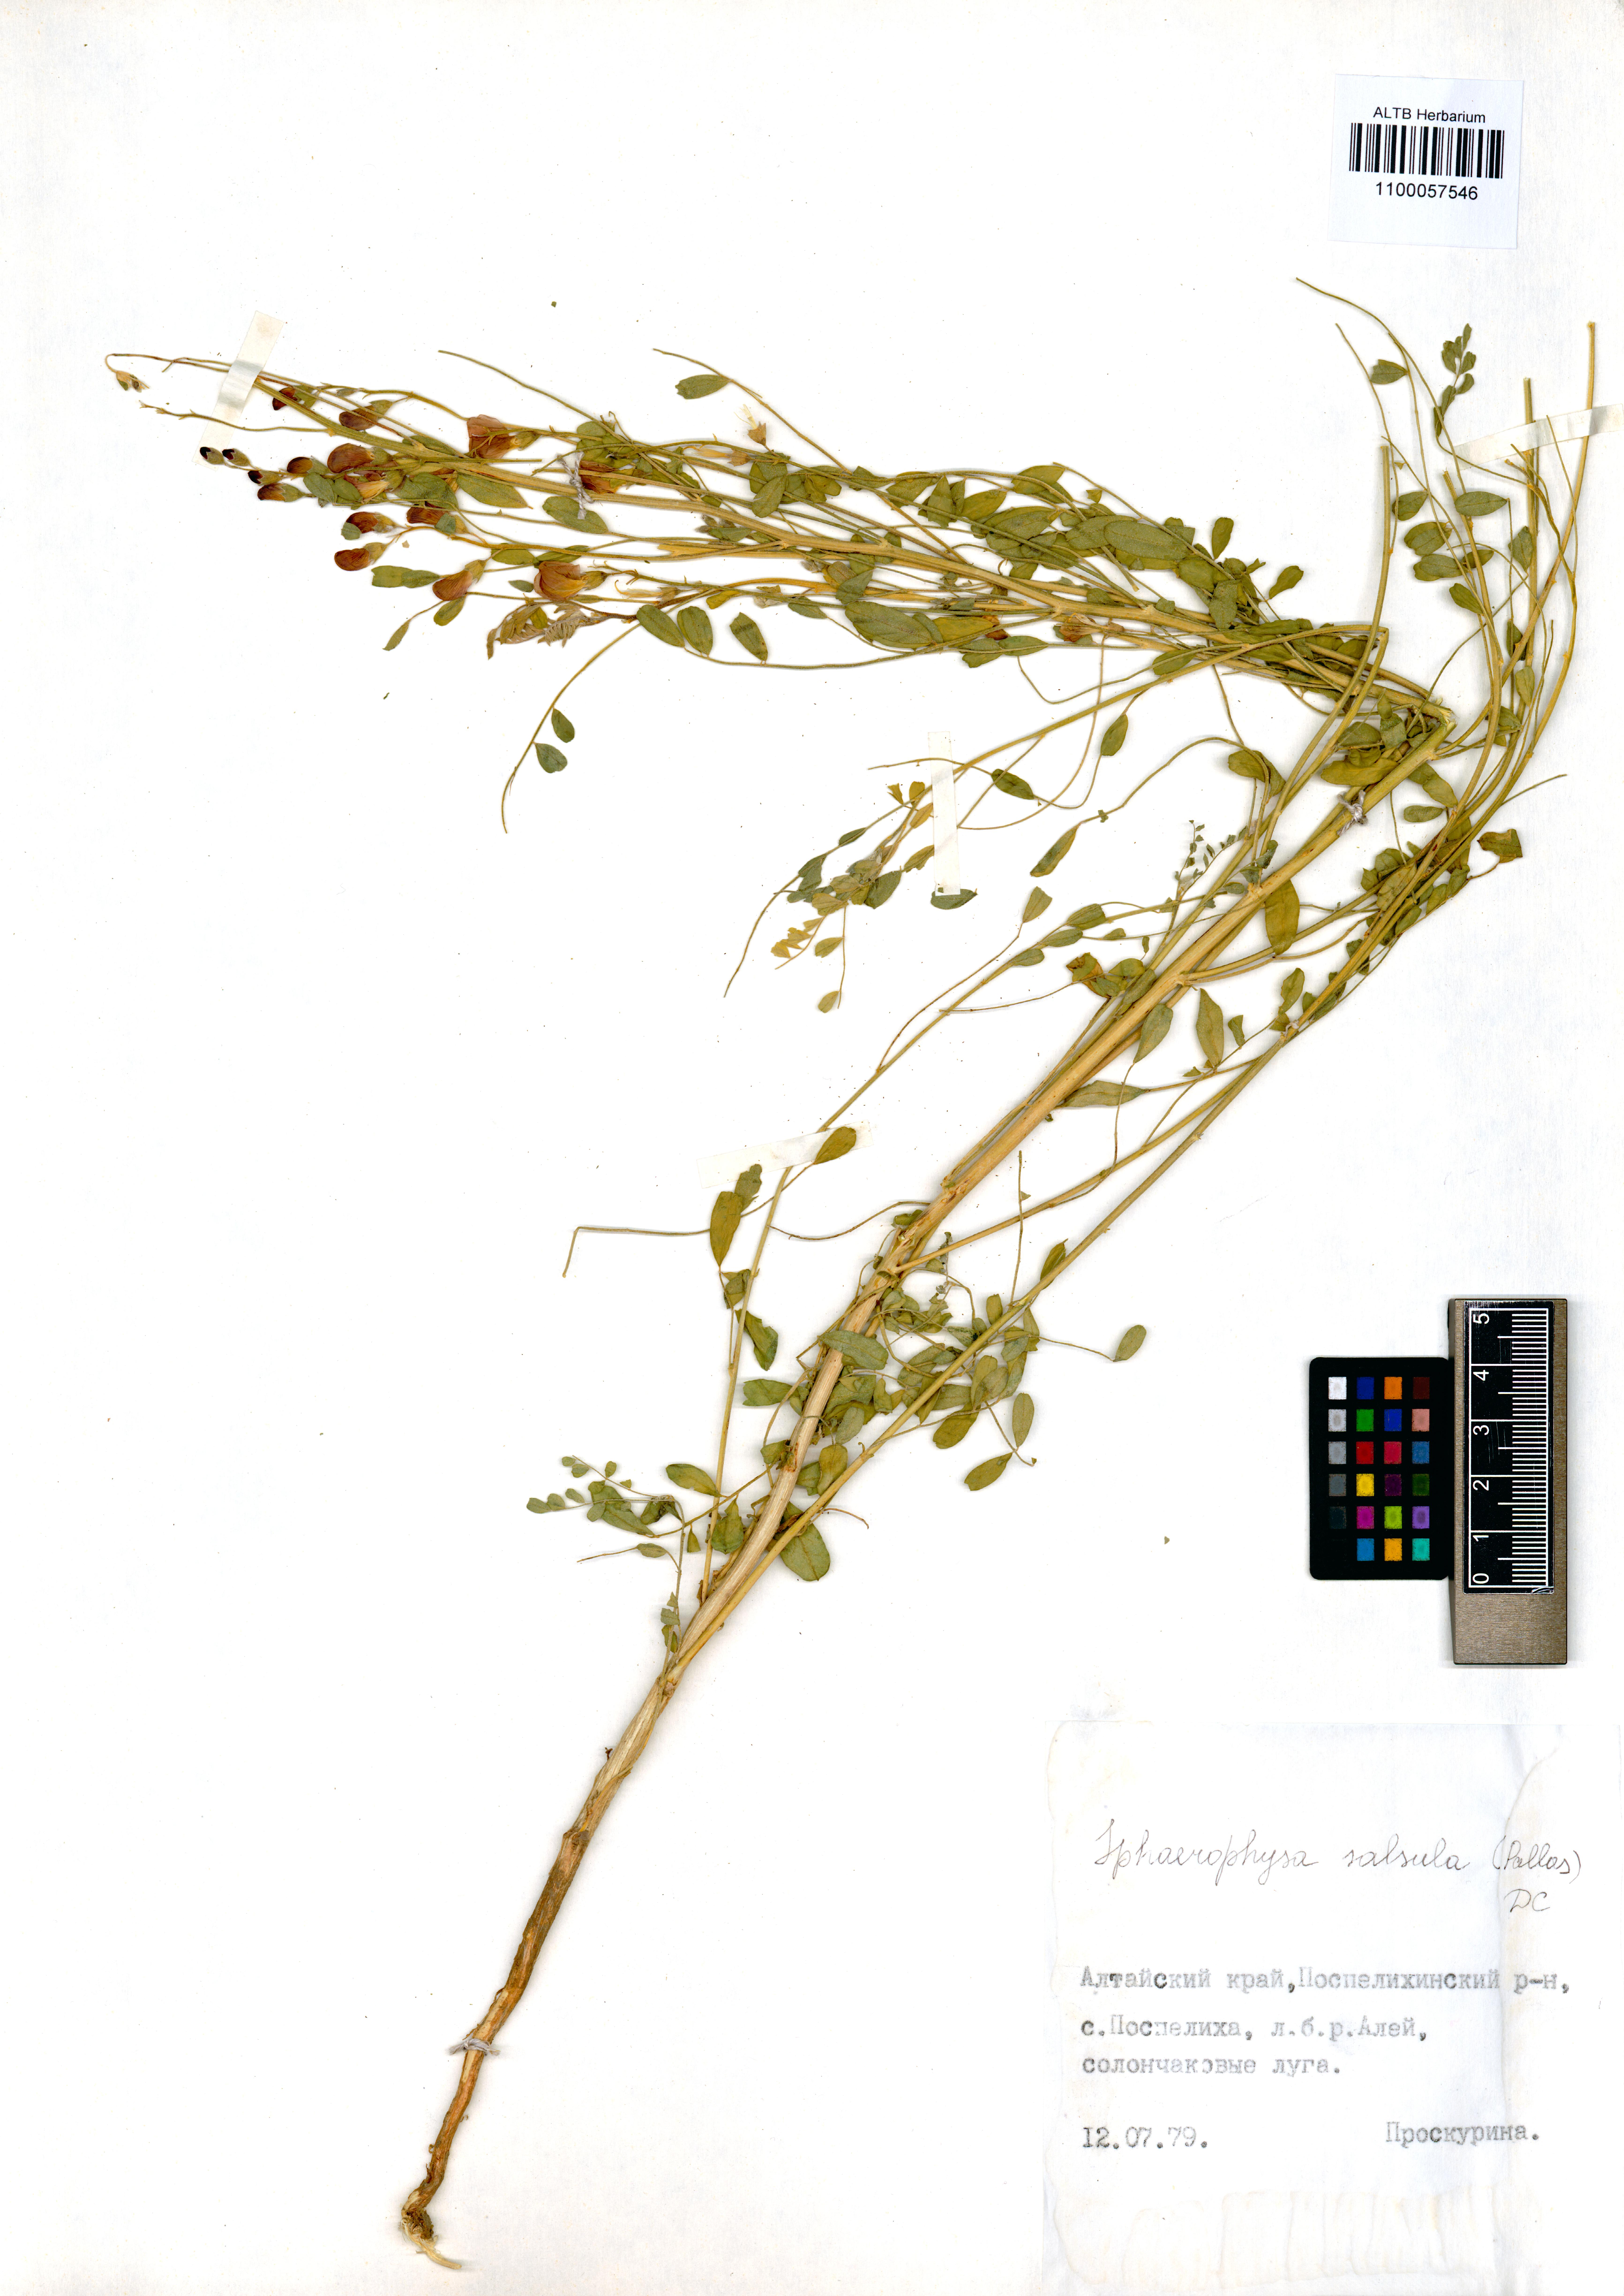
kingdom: Plantae
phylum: Tracheophyta
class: Magnoliopsida
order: Fabales
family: Fabaceae
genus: Sphaerophysa
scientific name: Sphaerophysa salsula
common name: Alkali swainsonpea
